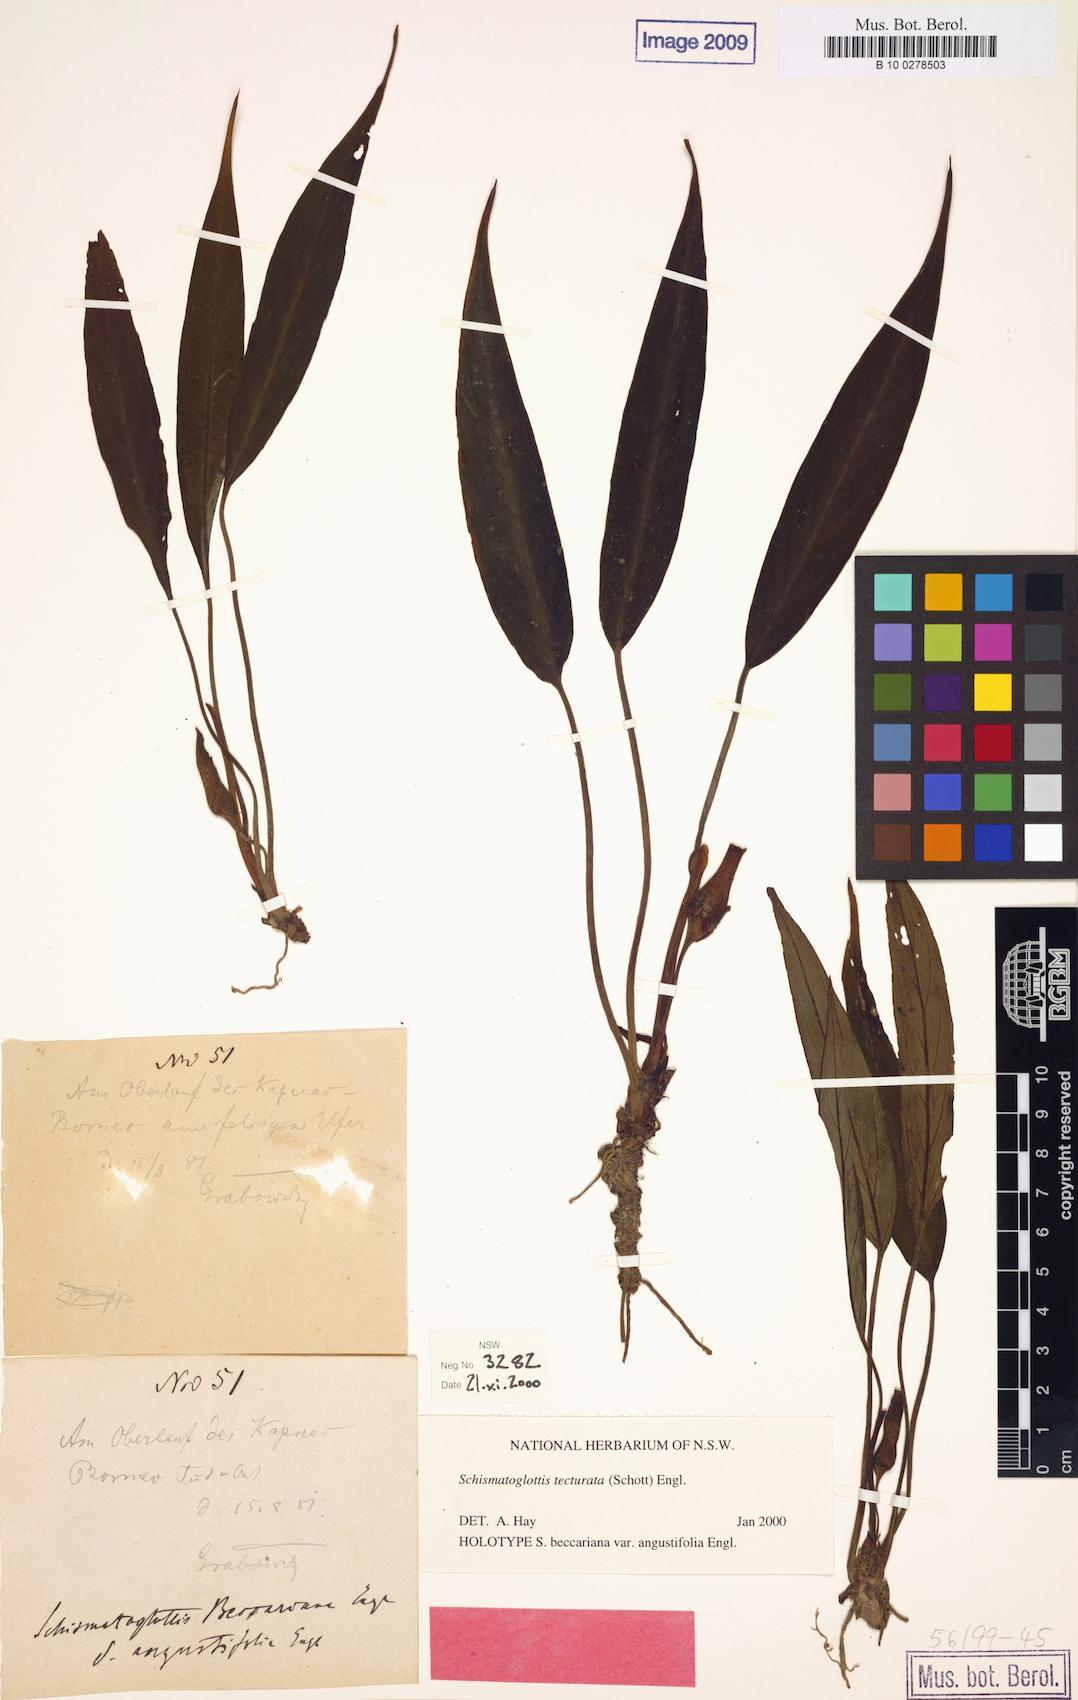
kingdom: Plantae
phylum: Tracheophyta
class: Liliopsida
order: Zingiberales
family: Costaceae
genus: Colobogynium
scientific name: Colobogynium variegatum
